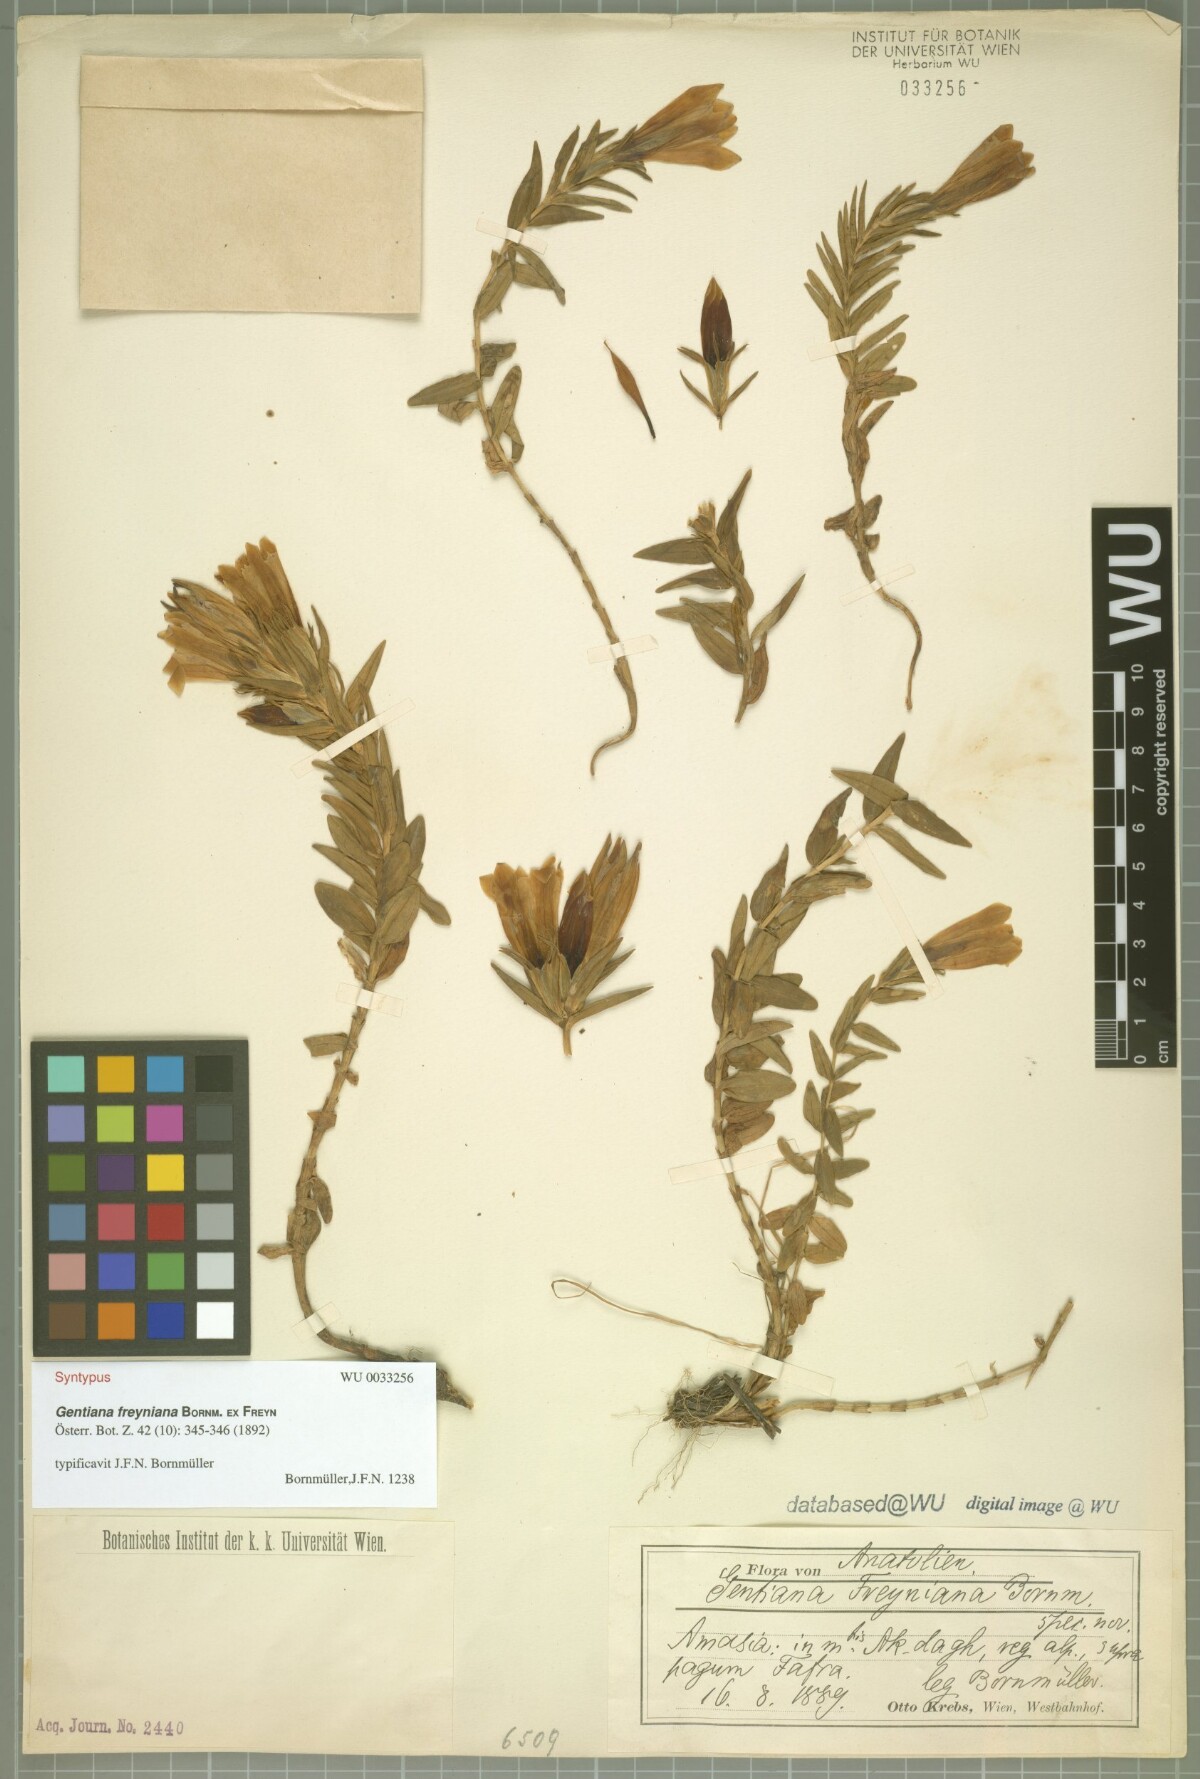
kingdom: Plantae
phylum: Tracheophyta
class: Magnoliopsida
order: Gentianales
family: Gentianaceae
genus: Gentiana
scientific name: Gentiana septemfida
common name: Crested gentian
